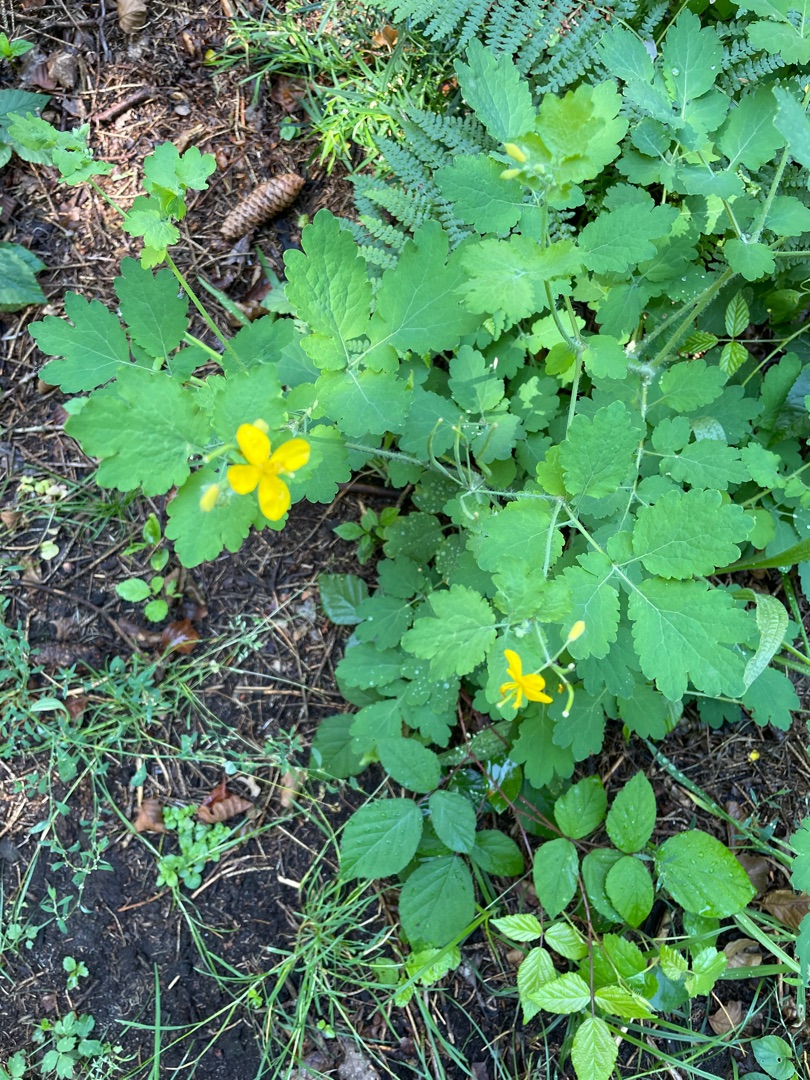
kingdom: Plantae
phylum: Tracheophyta
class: Magnoliopsida
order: Ranunculales
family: Papaveraceae
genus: Chelidonium
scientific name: Chelidonium majus
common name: Svaleurt
